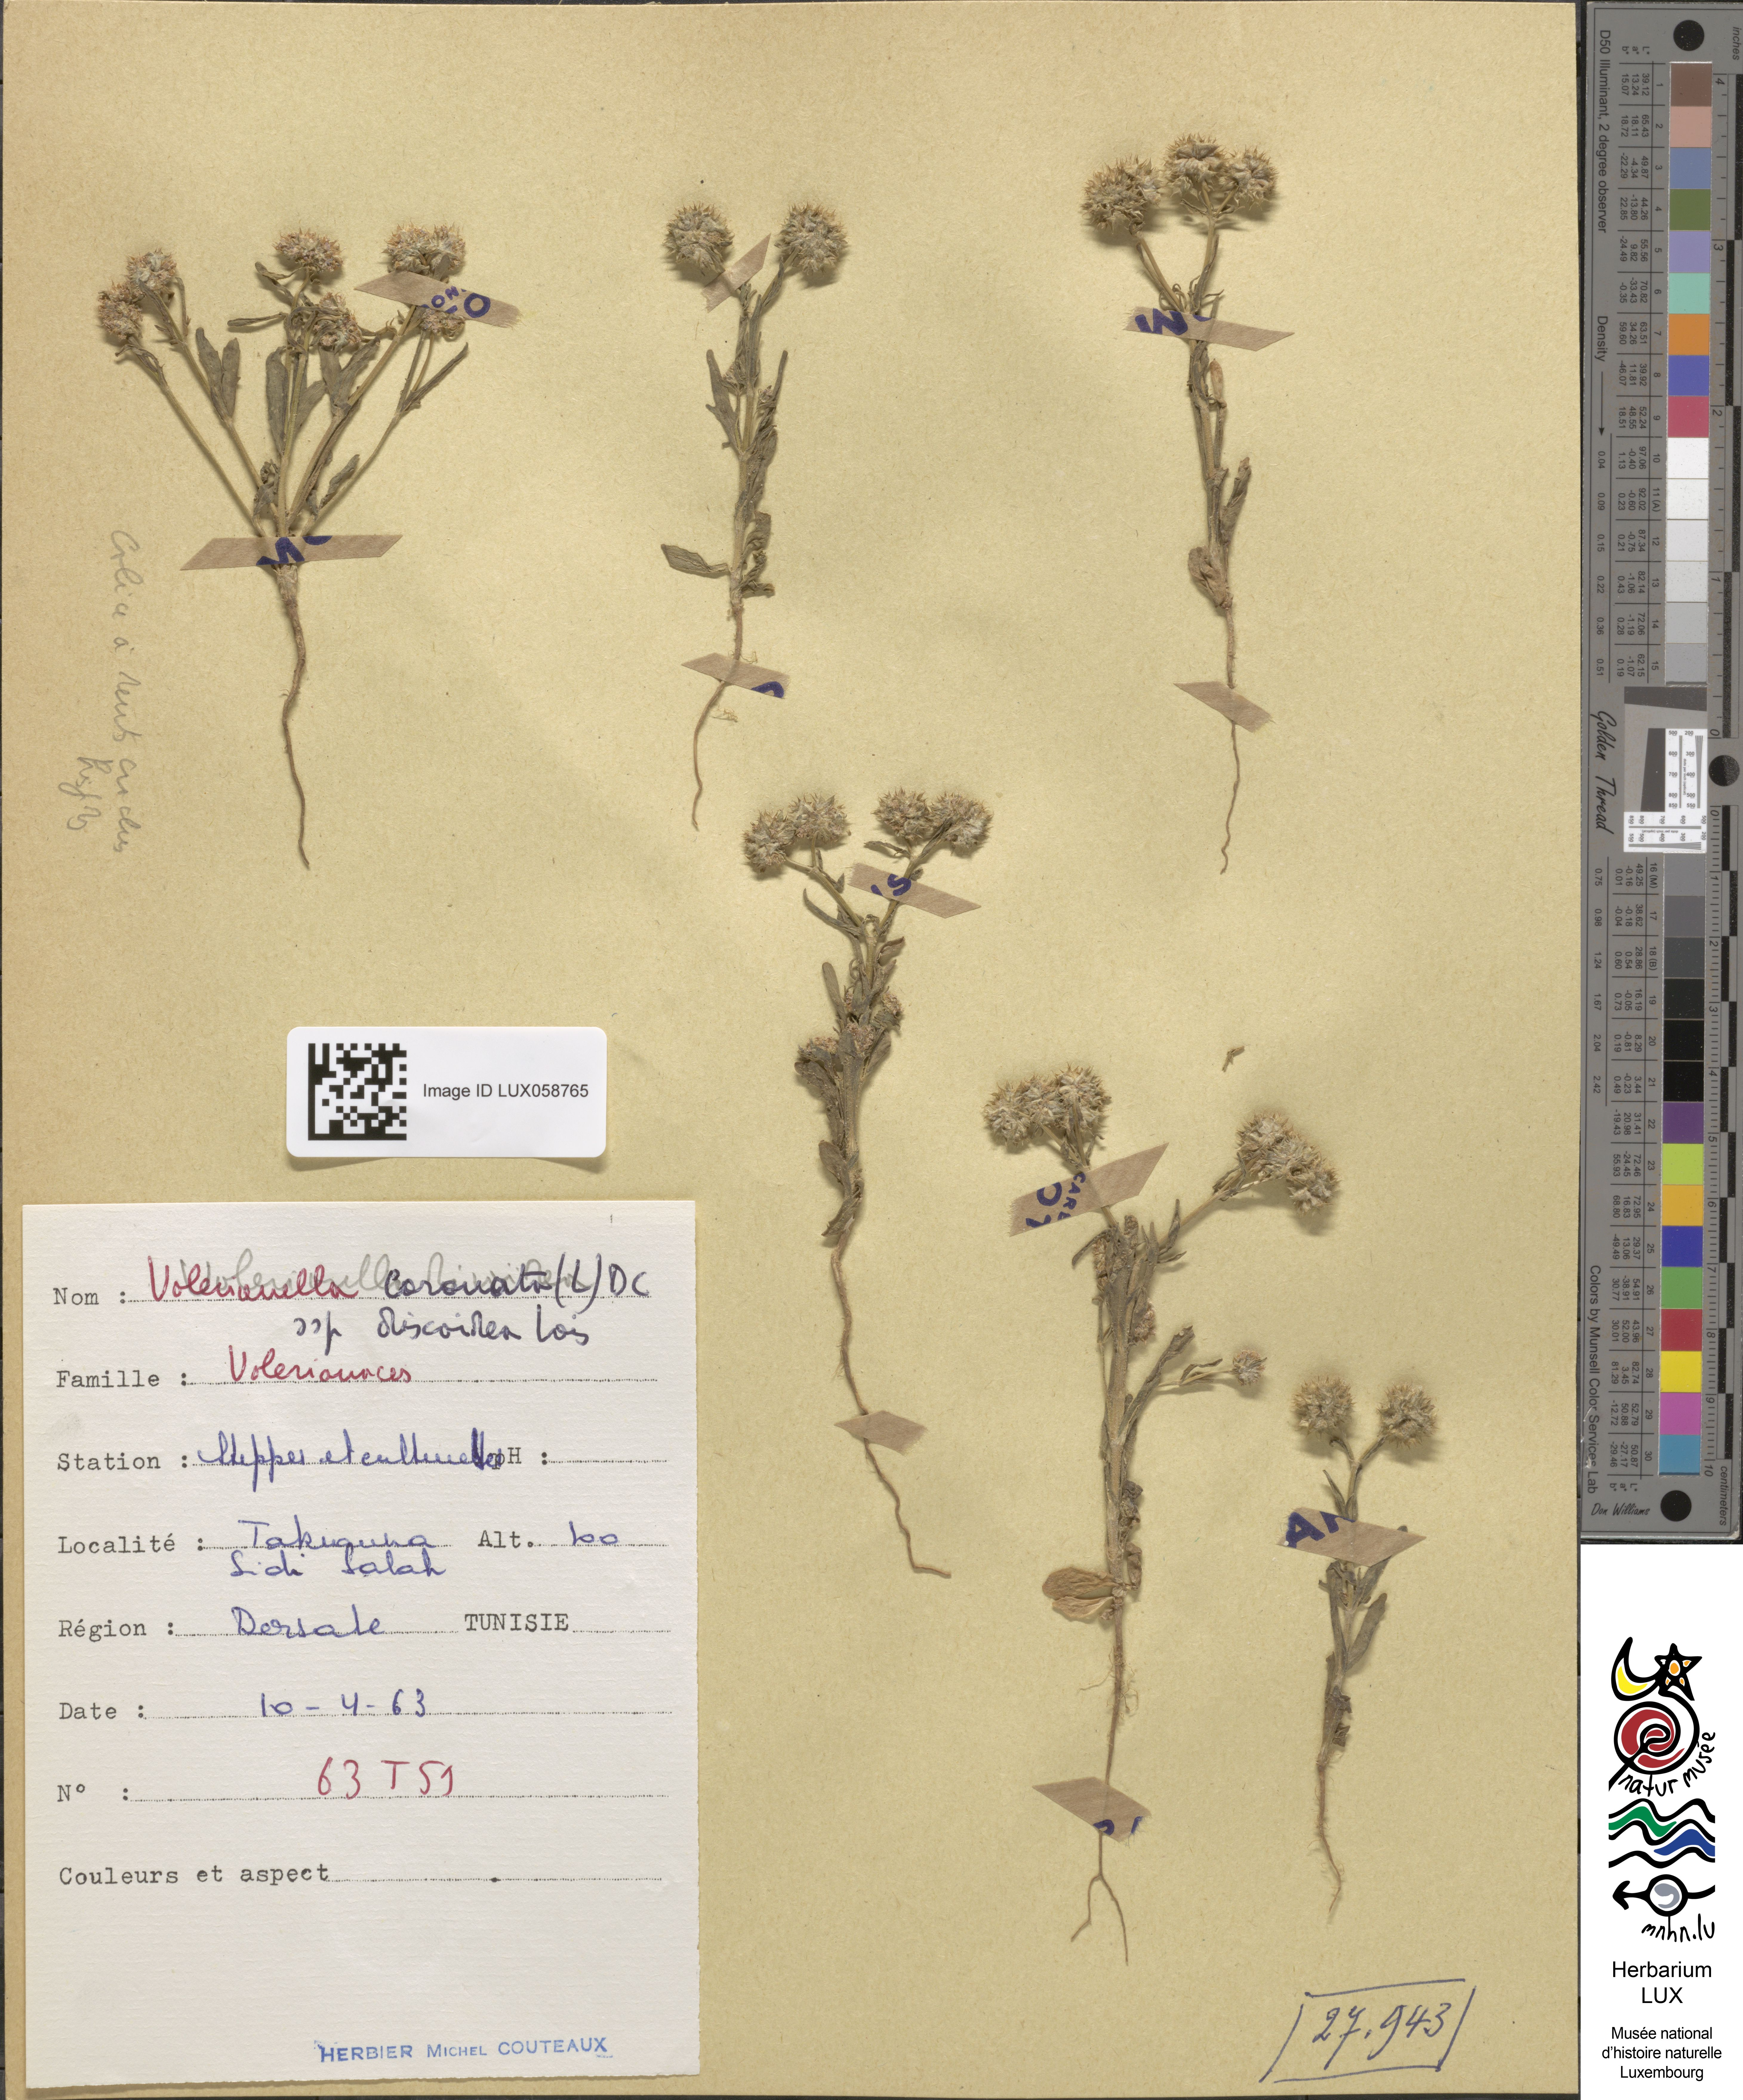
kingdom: Plantae
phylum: Tracheophyta
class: Magnoliopsida
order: Dipsacales
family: Caprifoliaceae
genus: Valerianella
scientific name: Valerianella discoidea
